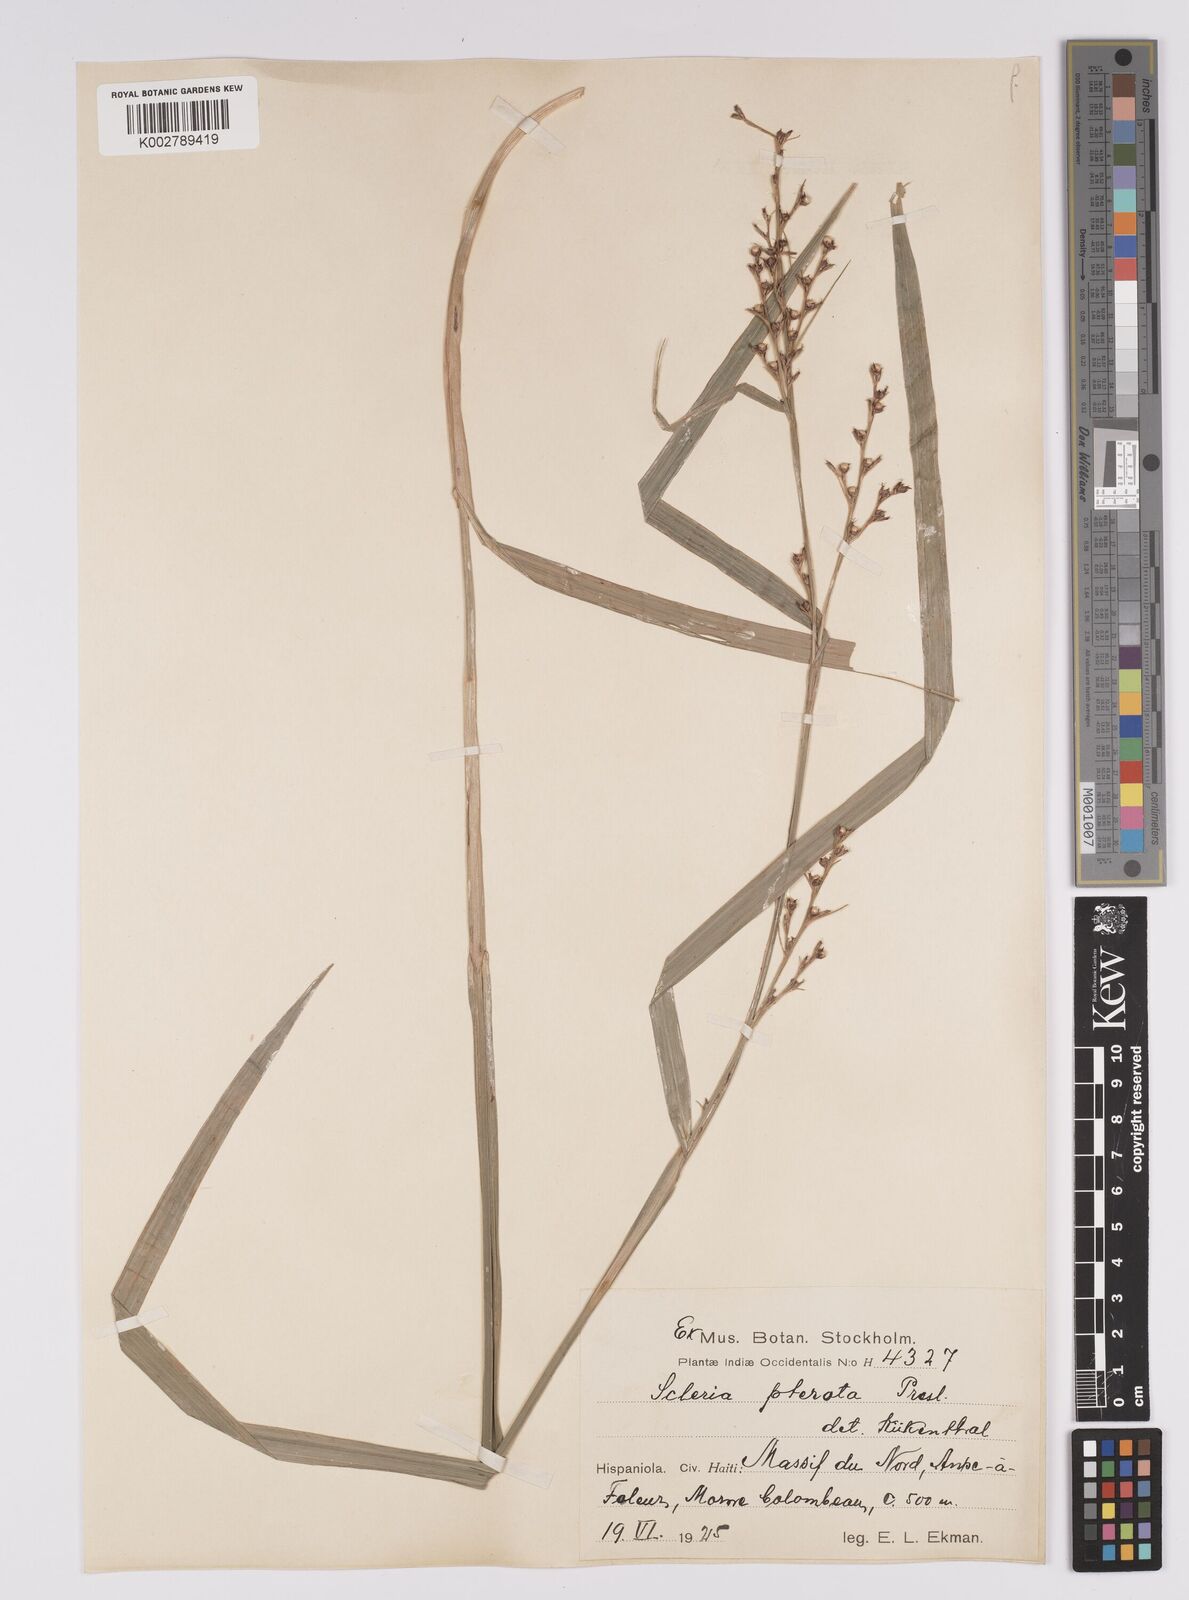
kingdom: Plantae
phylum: Tracheophyta
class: Liliopsida
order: Poales
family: Cyperaceae
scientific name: Cyperaceae
